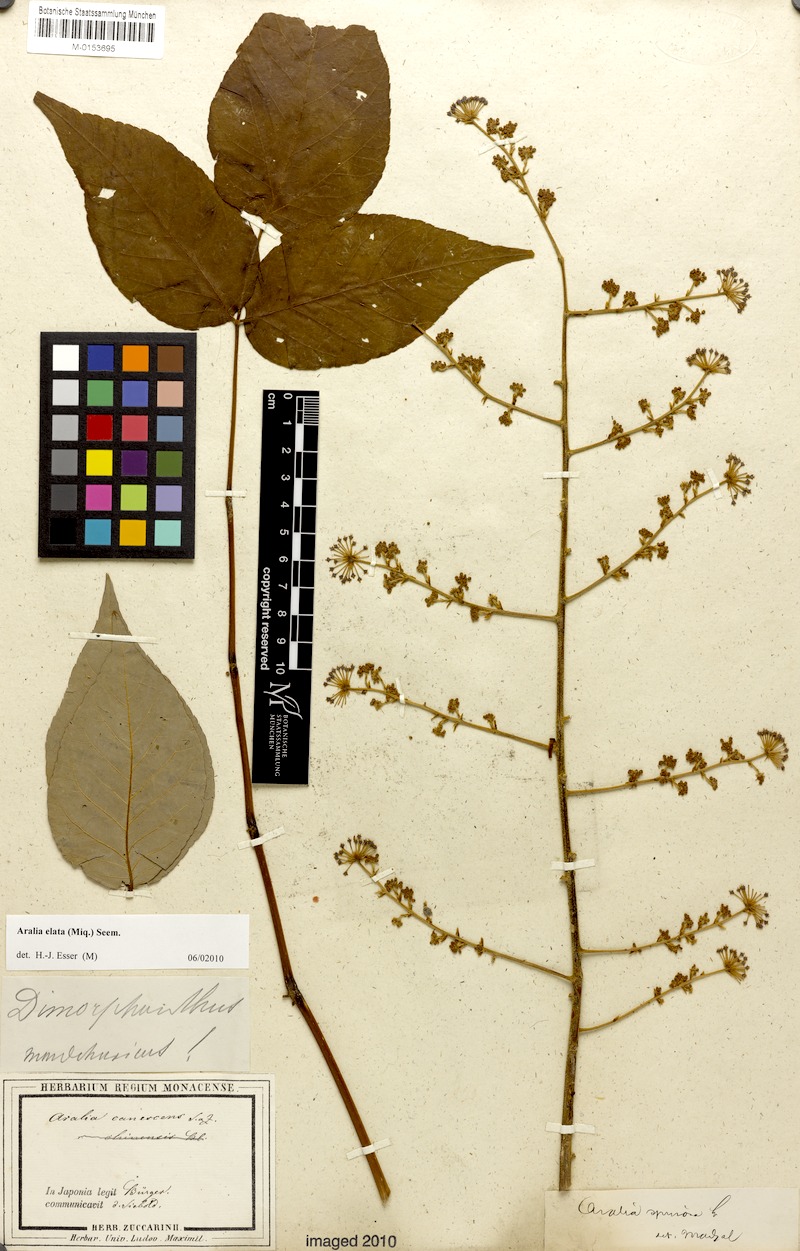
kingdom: Plantae
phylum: Tracheophyta
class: Magnoliopsida
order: Apiales
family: Araliaceae
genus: Aralia
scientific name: Aralia elata
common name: Japanese angelica-tree
